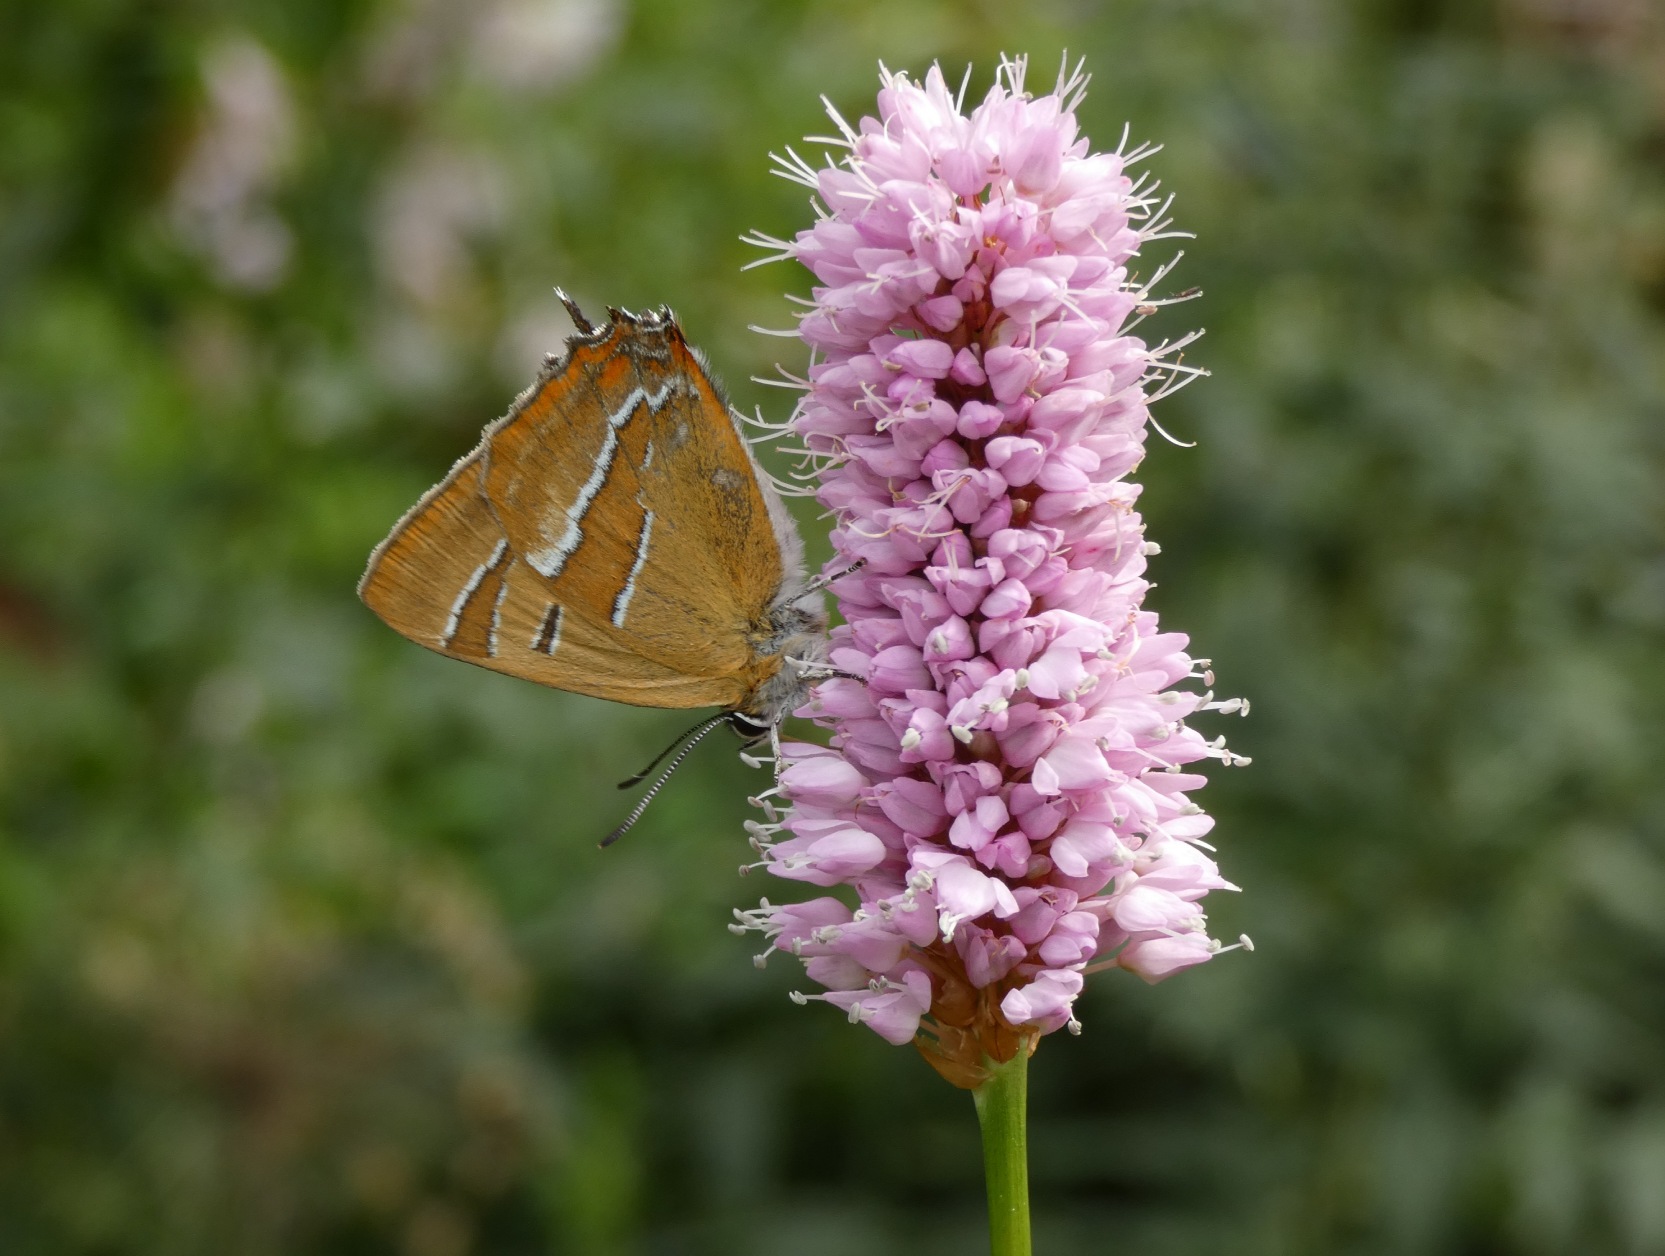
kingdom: Animalia
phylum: Arthropoda
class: Insecta
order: Lepidoptera
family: Lycaenidae
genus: Thecla
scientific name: Thecla betulae
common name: Guldhale
